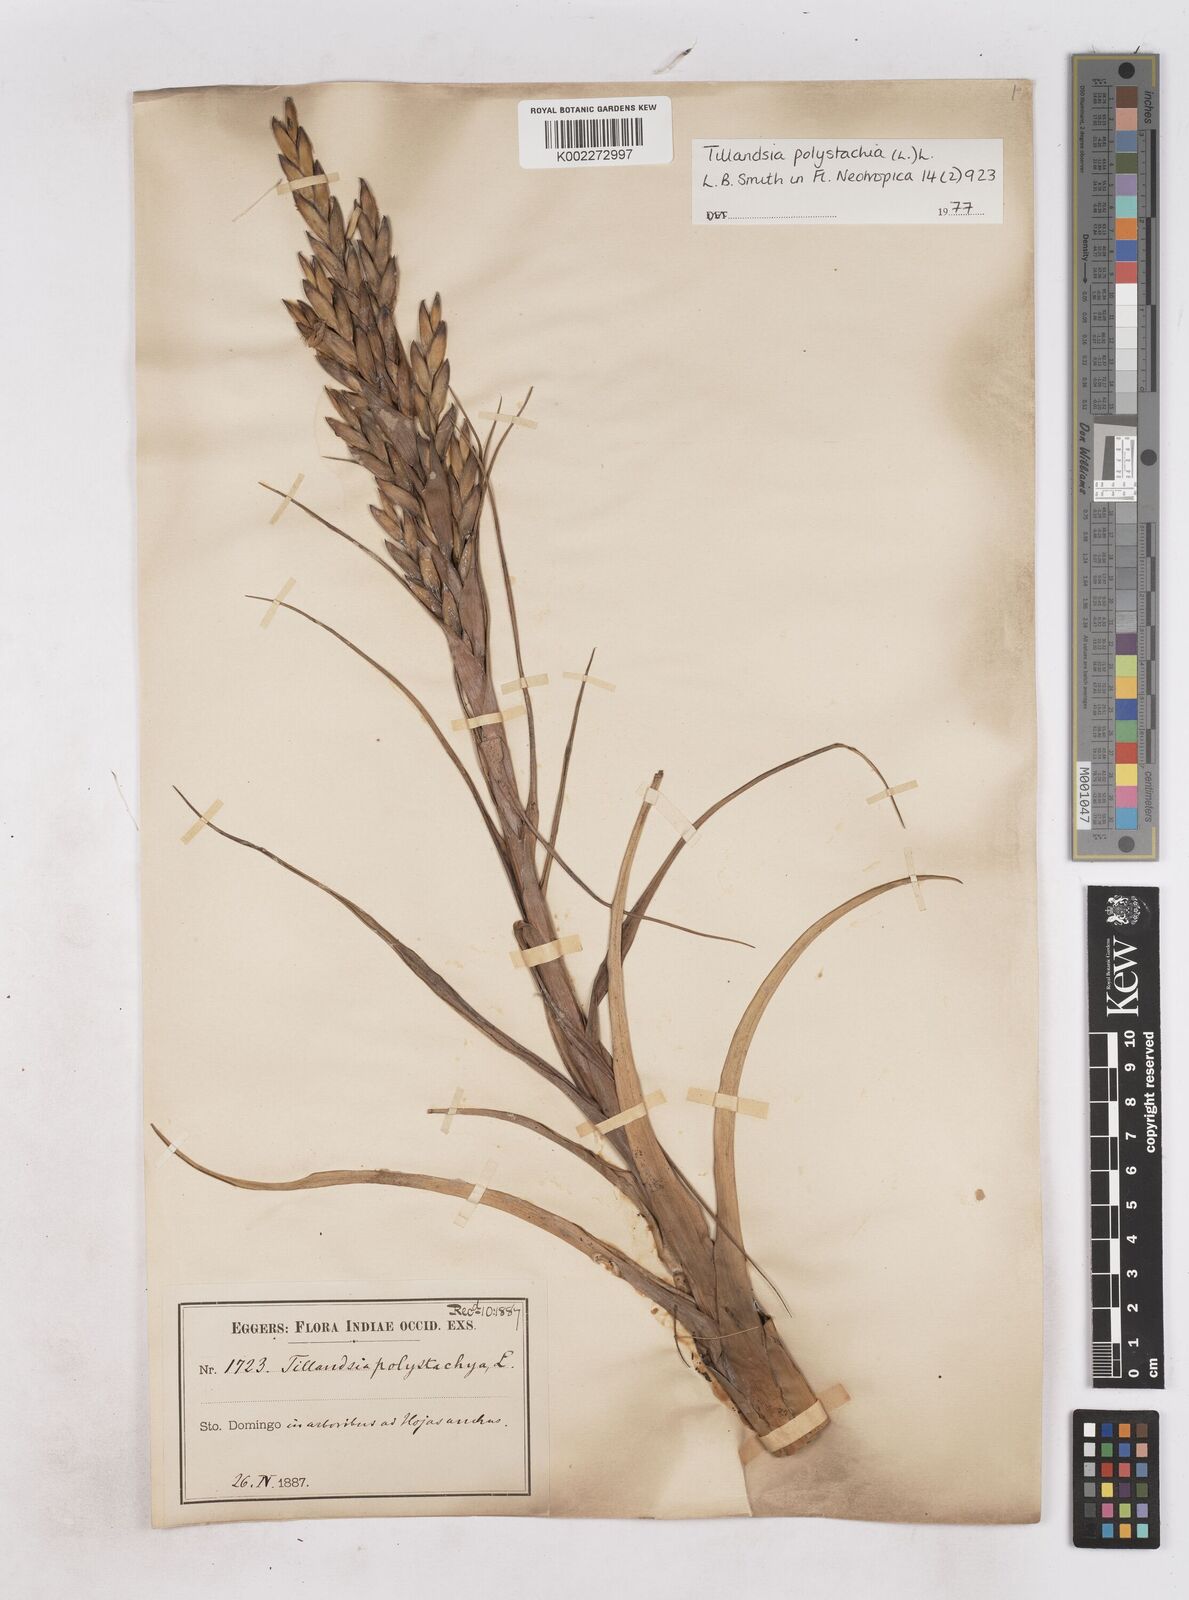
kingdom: Plantae
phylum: Tracheophyta
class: Liliopsida
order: Poales
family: Bromeliaceae
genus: Tillandsia
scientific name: Tillandsia polystachia
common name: Airplant
